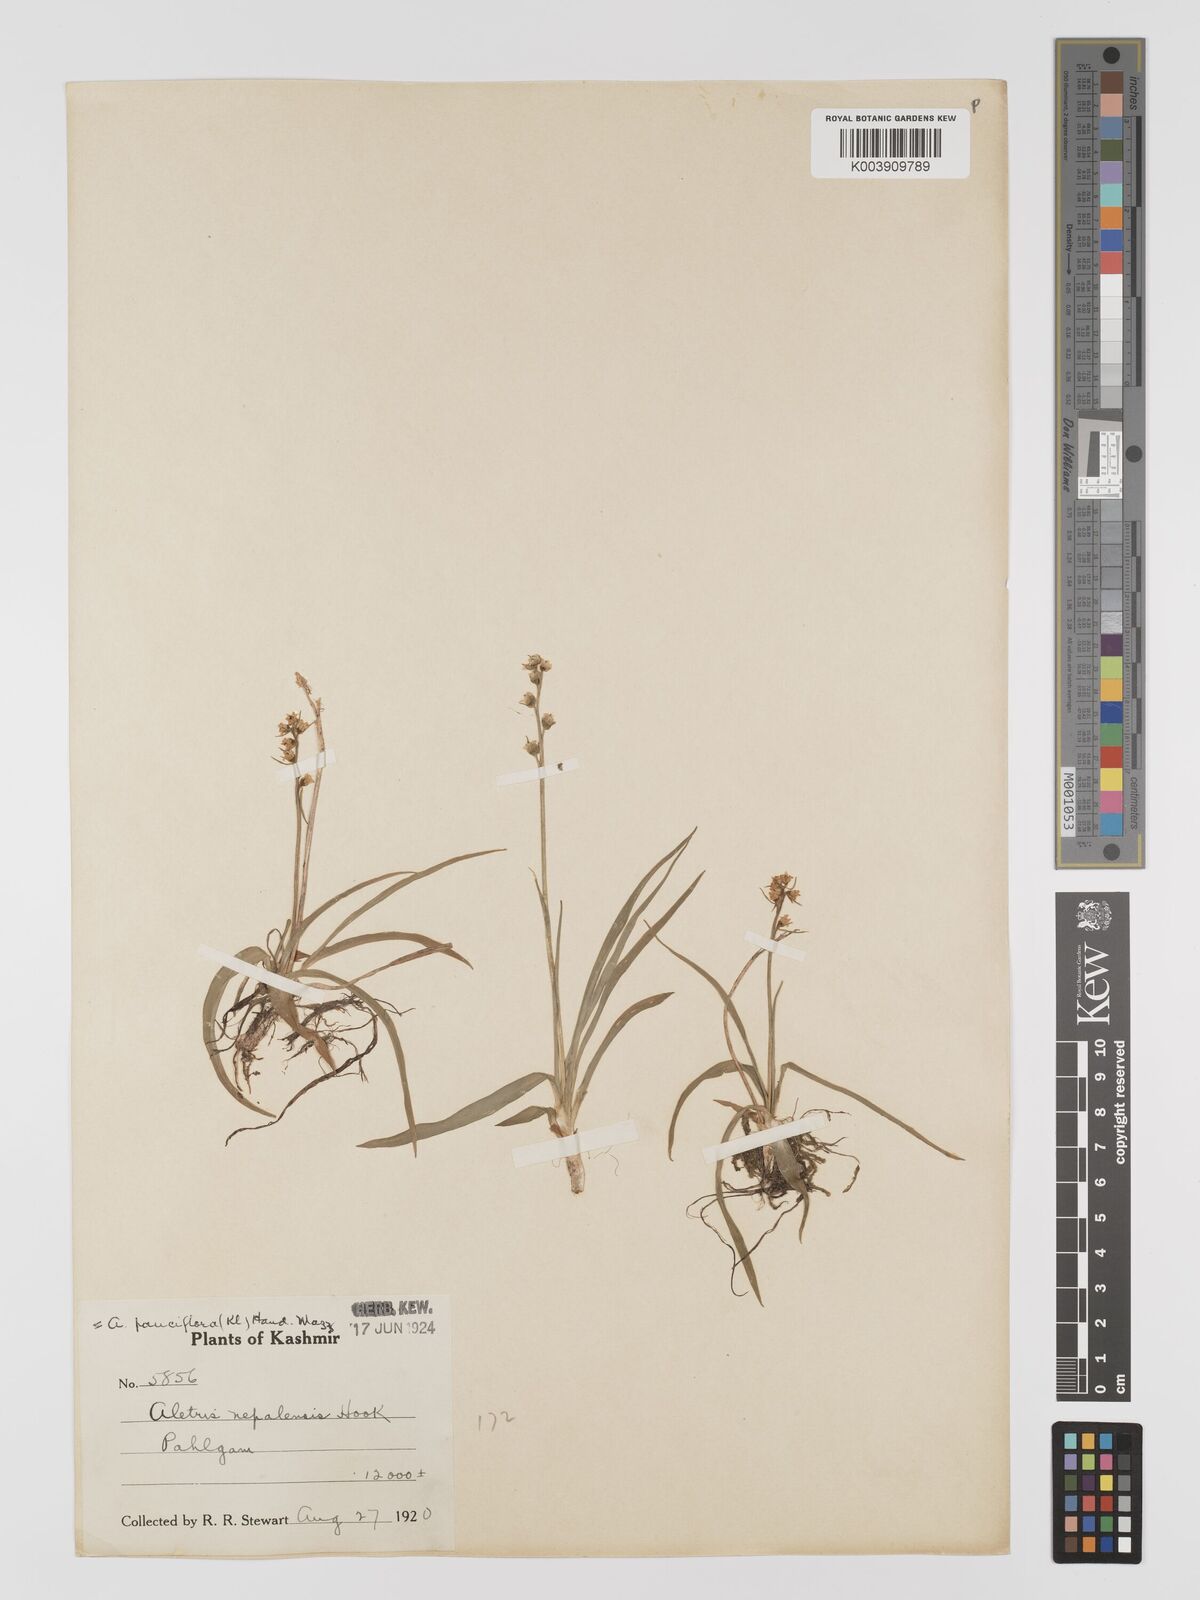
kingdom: Plantae
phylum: Tracheophyta
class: Liliopsida
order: Dioscoreales
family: Nartheciaceae
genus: Aletris
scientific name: Aletris pauciflora
